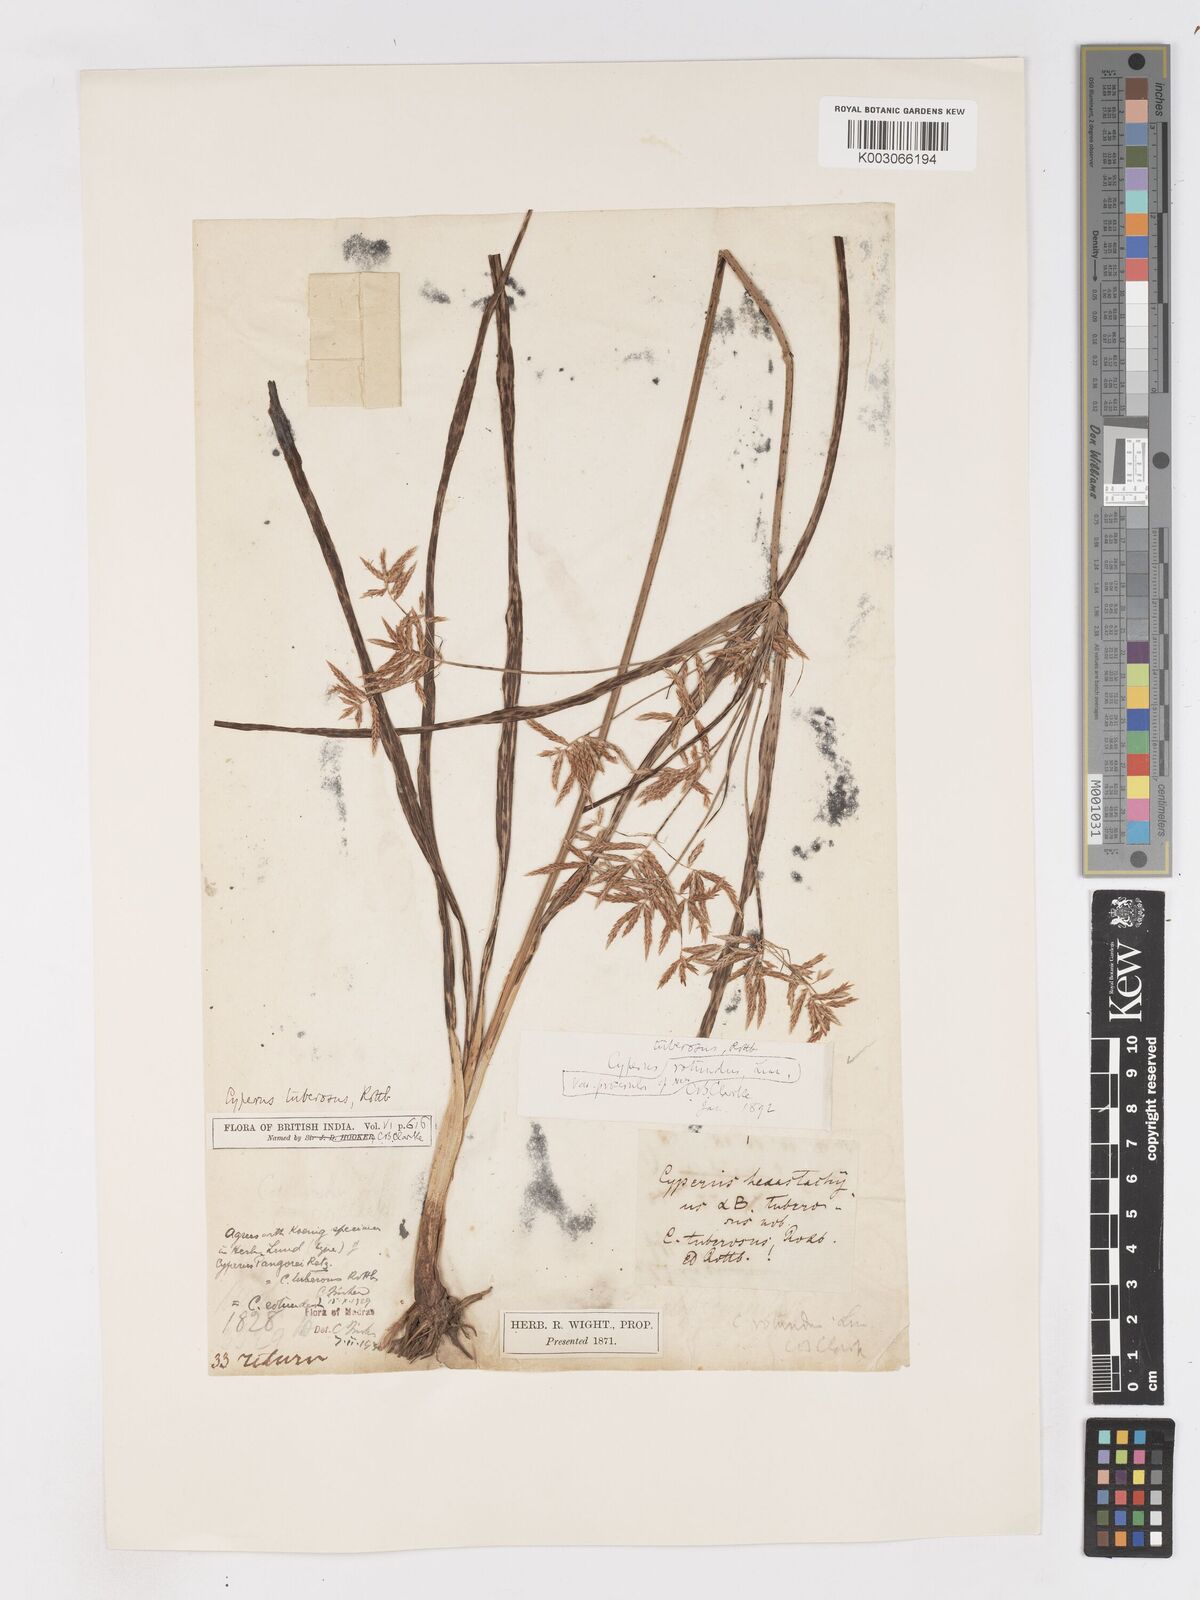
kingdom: Plantae
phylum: Tracheophyta
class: Liliopsida
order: Poales
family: Cyperaceae
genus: Cyperus
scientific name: Cyperus bifax
